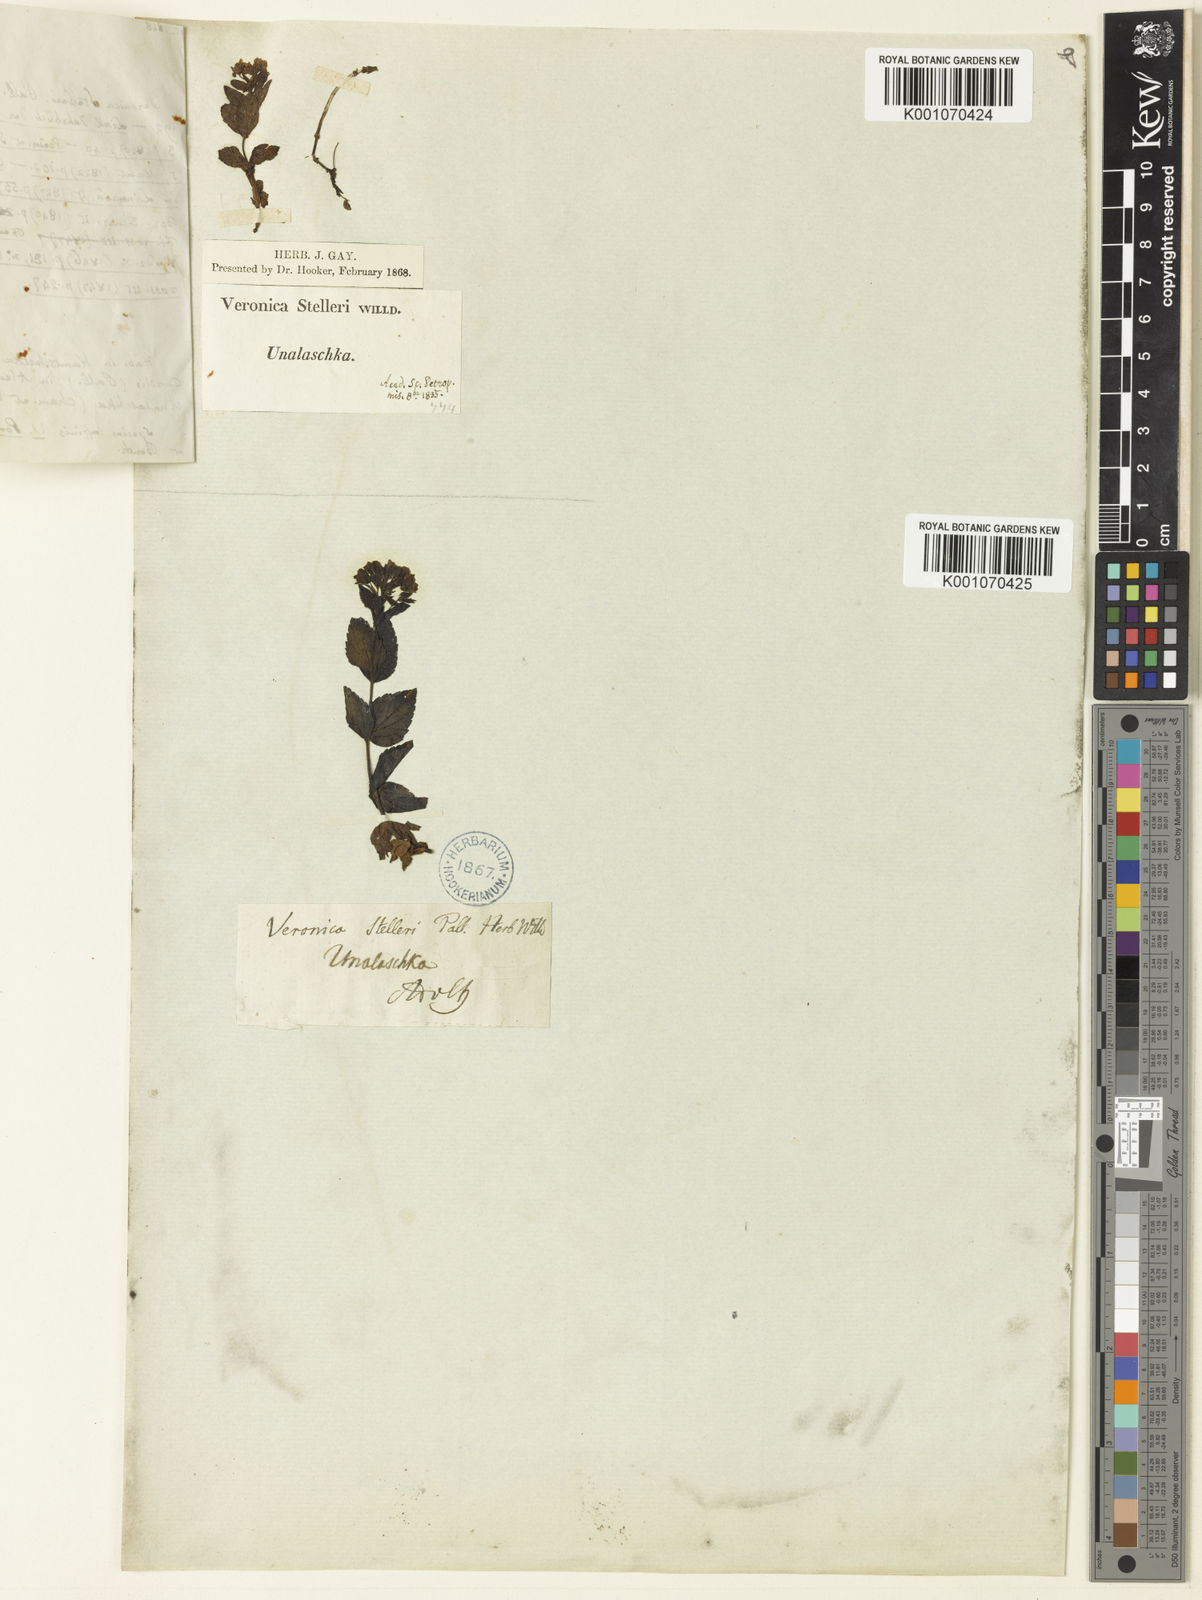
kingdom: Plantae
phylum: Tracheophyta
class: Magnoliopsida
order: Lamiales
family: Plantaginaceae
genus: Veronica
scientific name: Veronica stelleri
